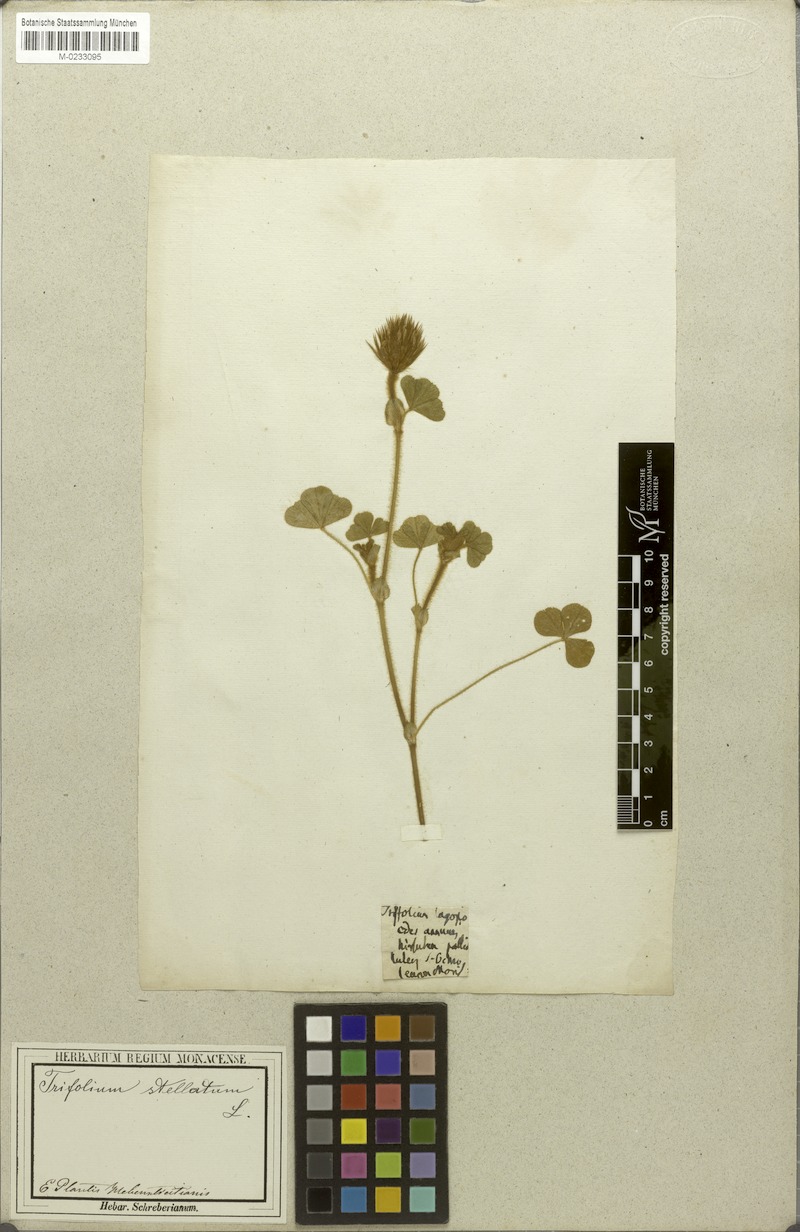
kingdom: Plantae
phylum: Tracheophyta
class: Magnoliopsida
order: Fabales
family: Fabaceae
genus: Trifolium
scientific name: Trifolium stellatum
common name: Starry clover
